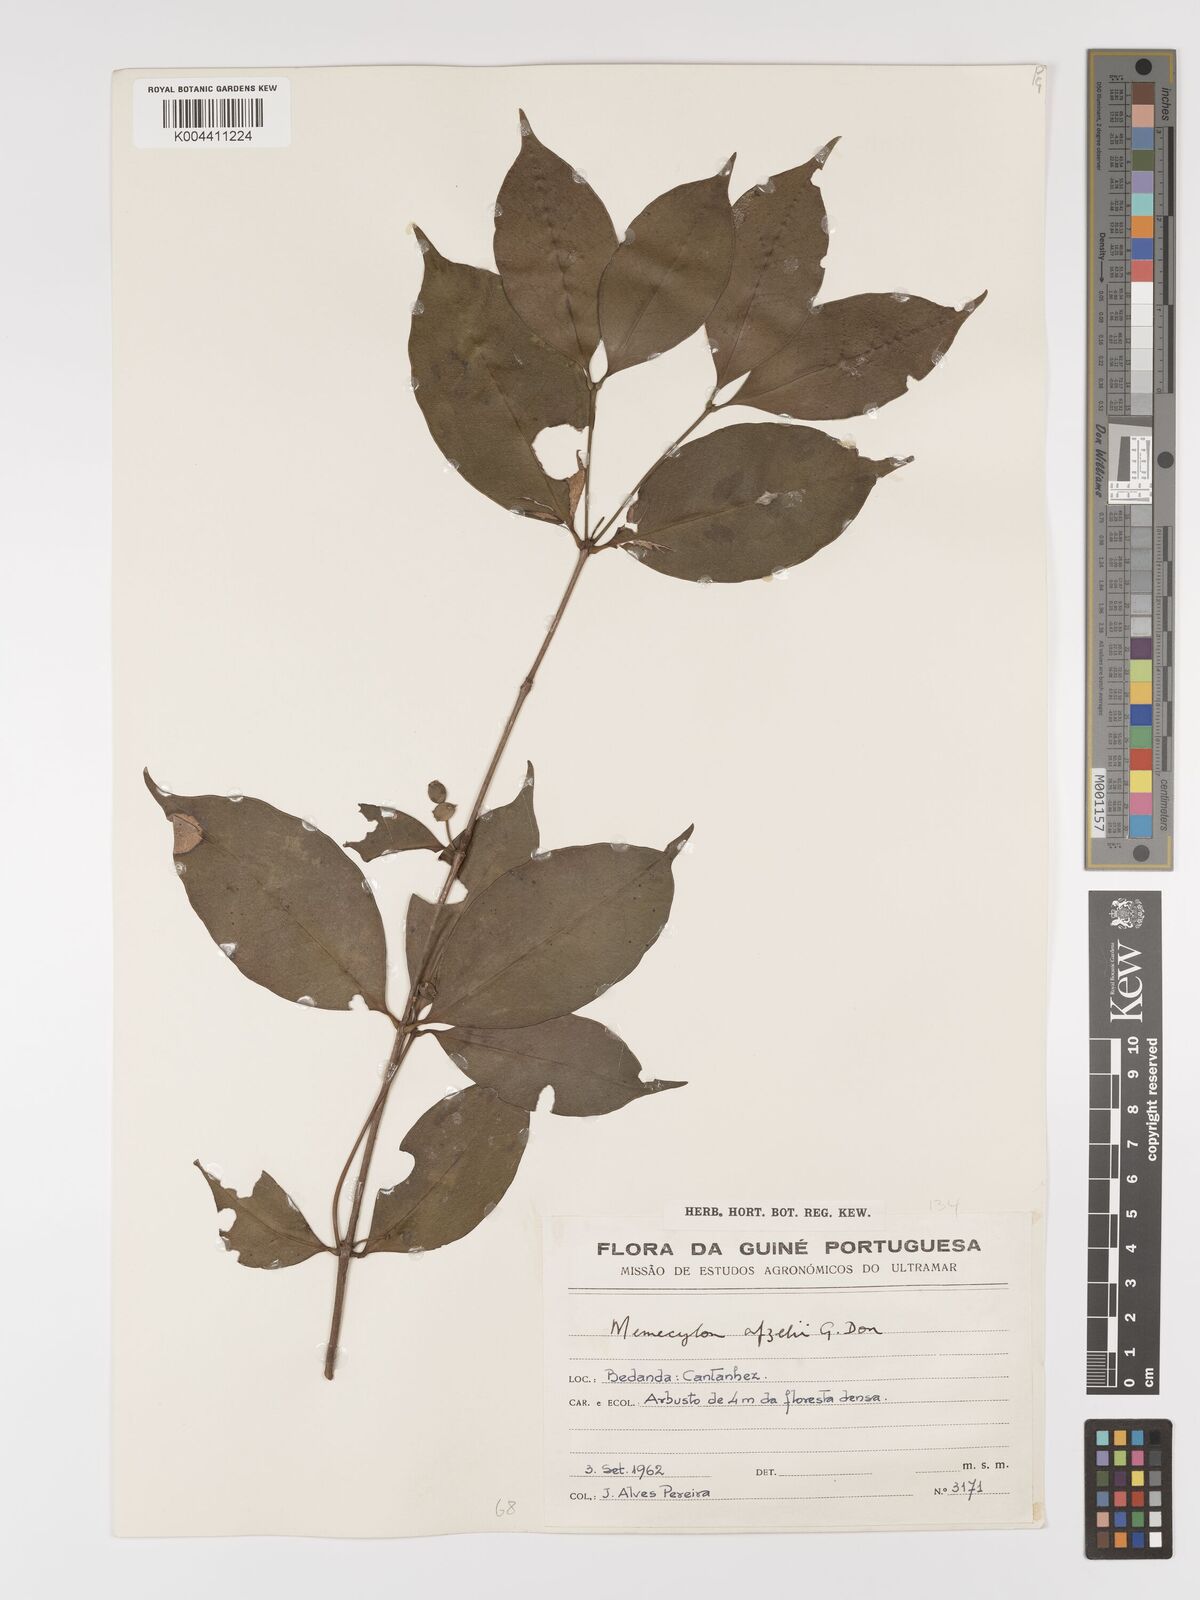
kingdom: Plantae
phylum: Tracheophyta
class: Magnoliopsida
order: Myrtales
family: Melastomataceae
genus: Memecylon
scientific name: Memecylon afzelii
